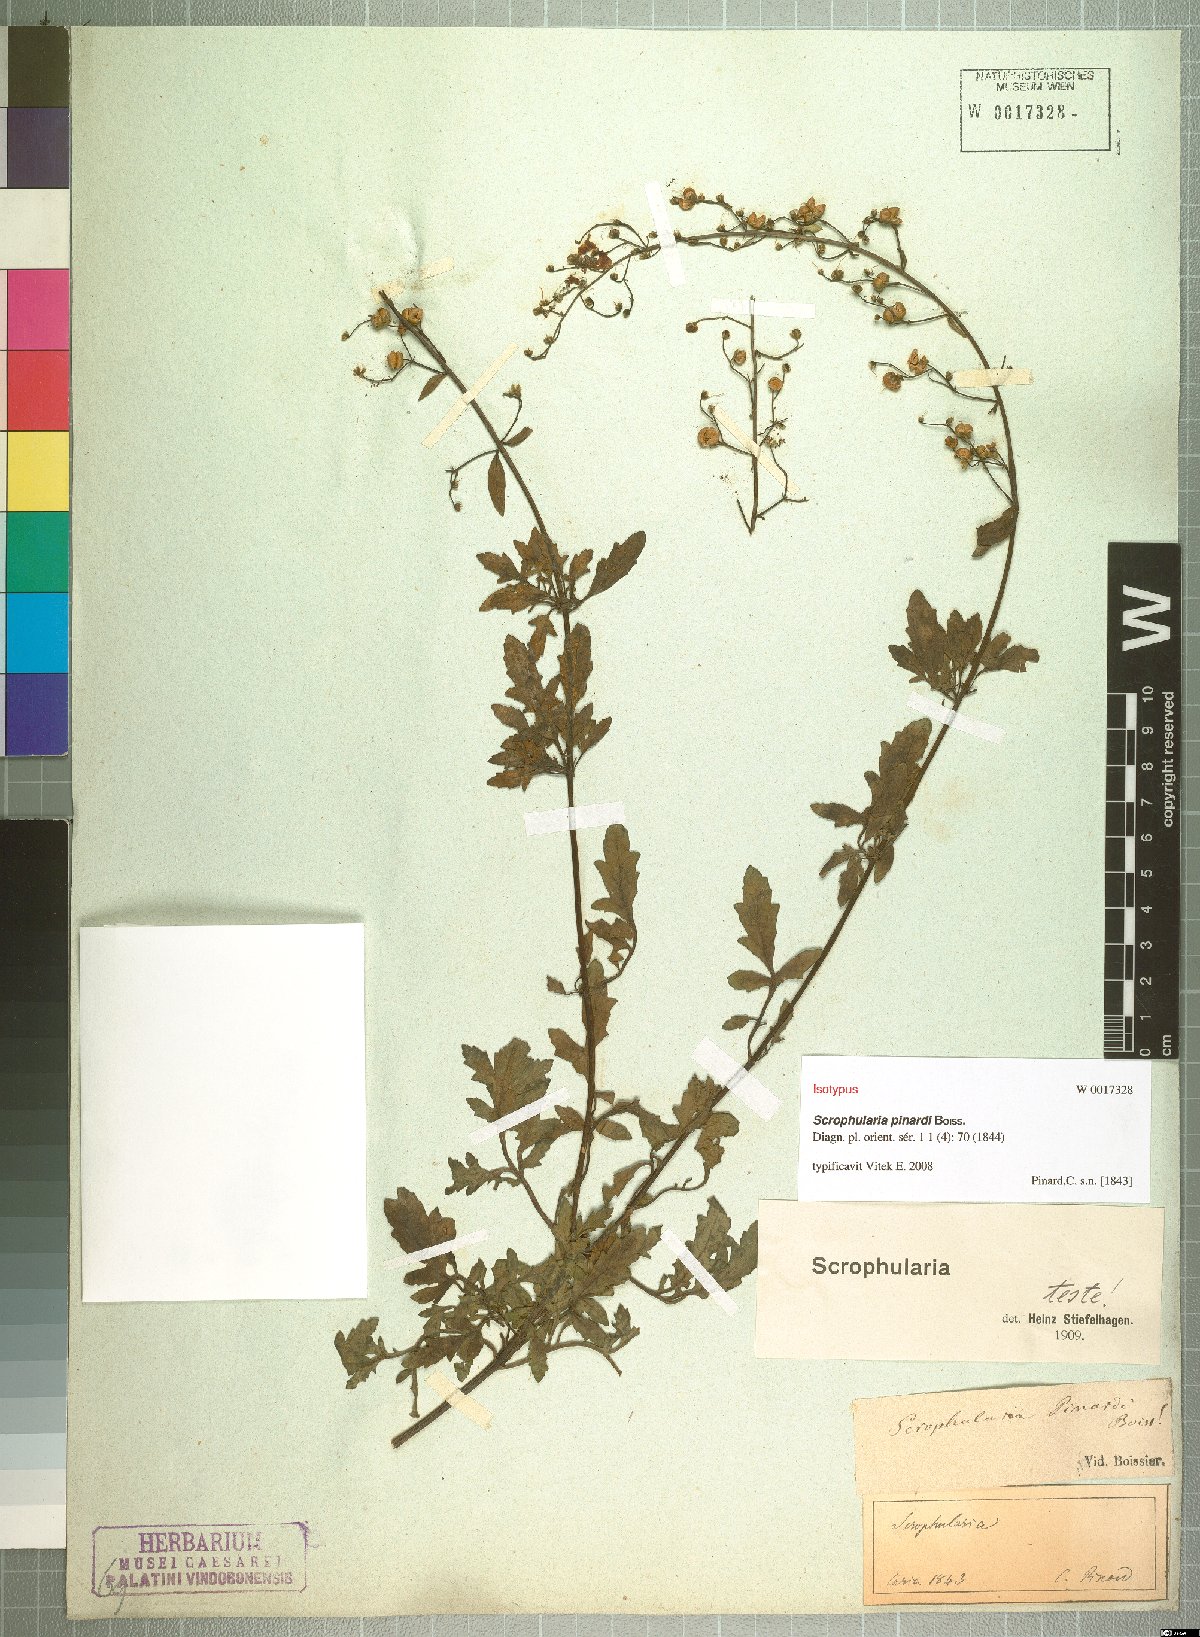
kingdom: Plantae
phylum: Tracheophyta
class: Magnoliopsida
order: Lamiales
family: Scrophulariaceae
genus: Scrophularia
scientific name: Scrophularia pinardii
